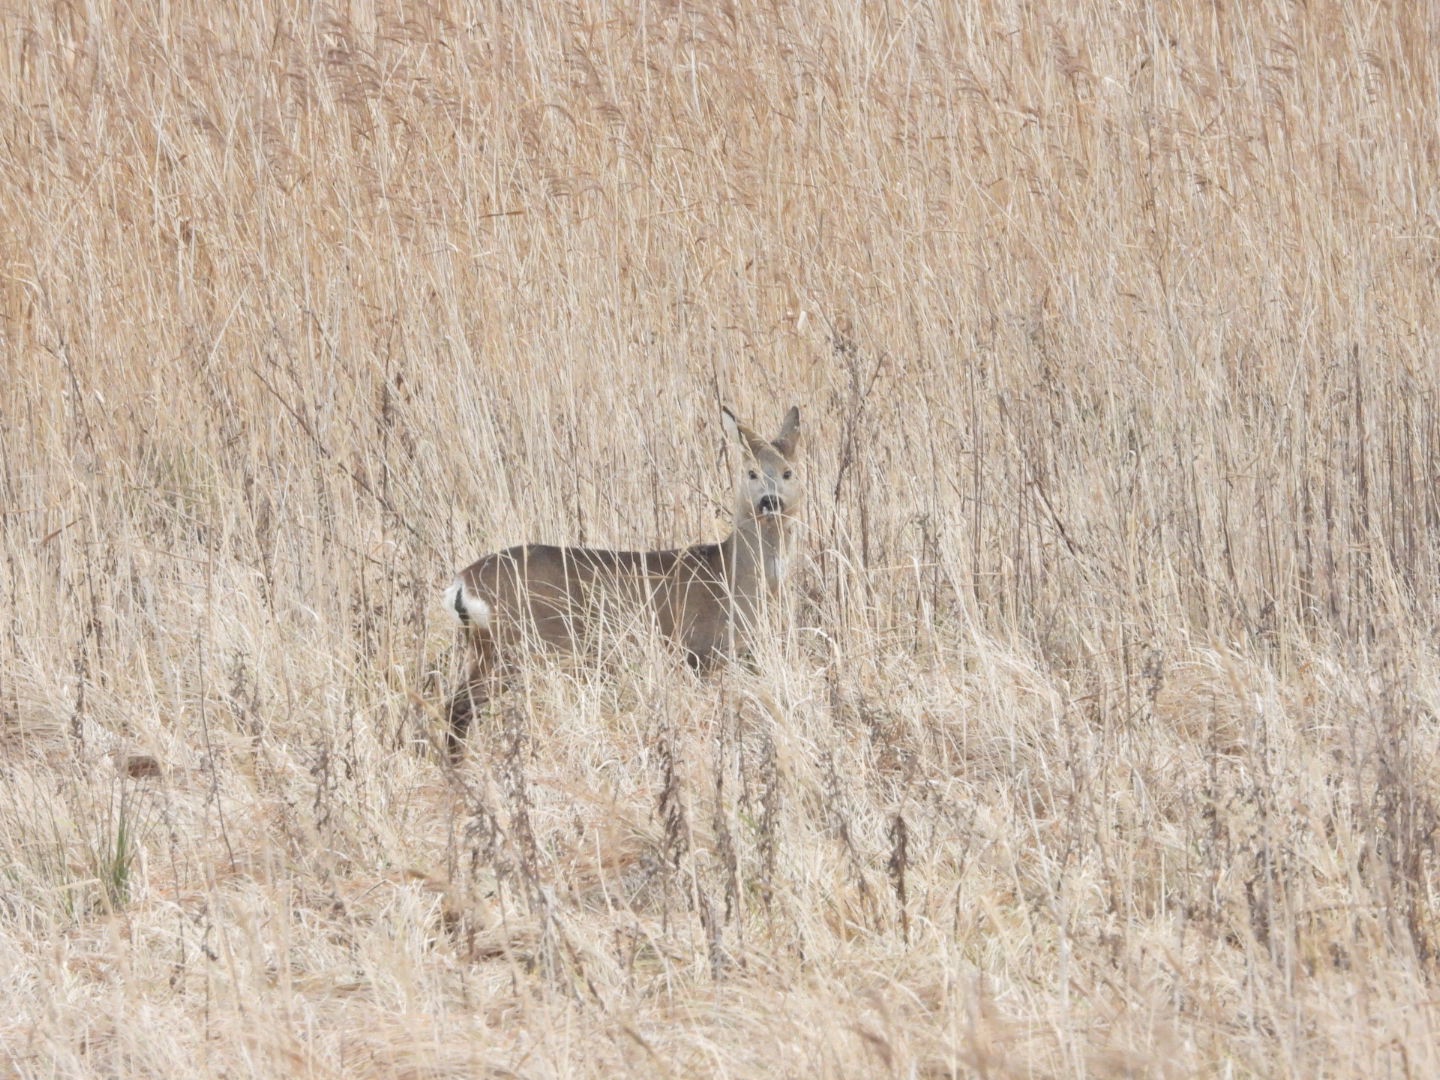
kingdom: Animalia
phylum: Chordata
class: Mammalia
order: Artiodactyla
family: Cervidae
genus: Capreolus
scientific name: Capreolus capreolus
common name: Rådyr
